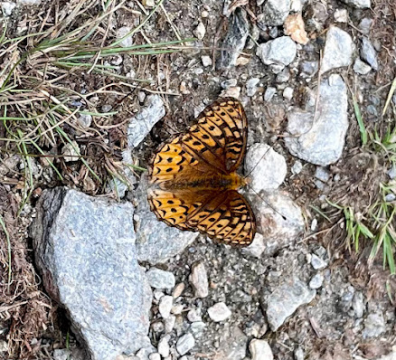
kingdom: Animalia
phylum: Arthropoda
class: Insecta
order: Lepidoptera
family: Nymphalidae
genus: Speyeria
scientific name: Speyeria atlantis
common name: Atlantis Fritillary
